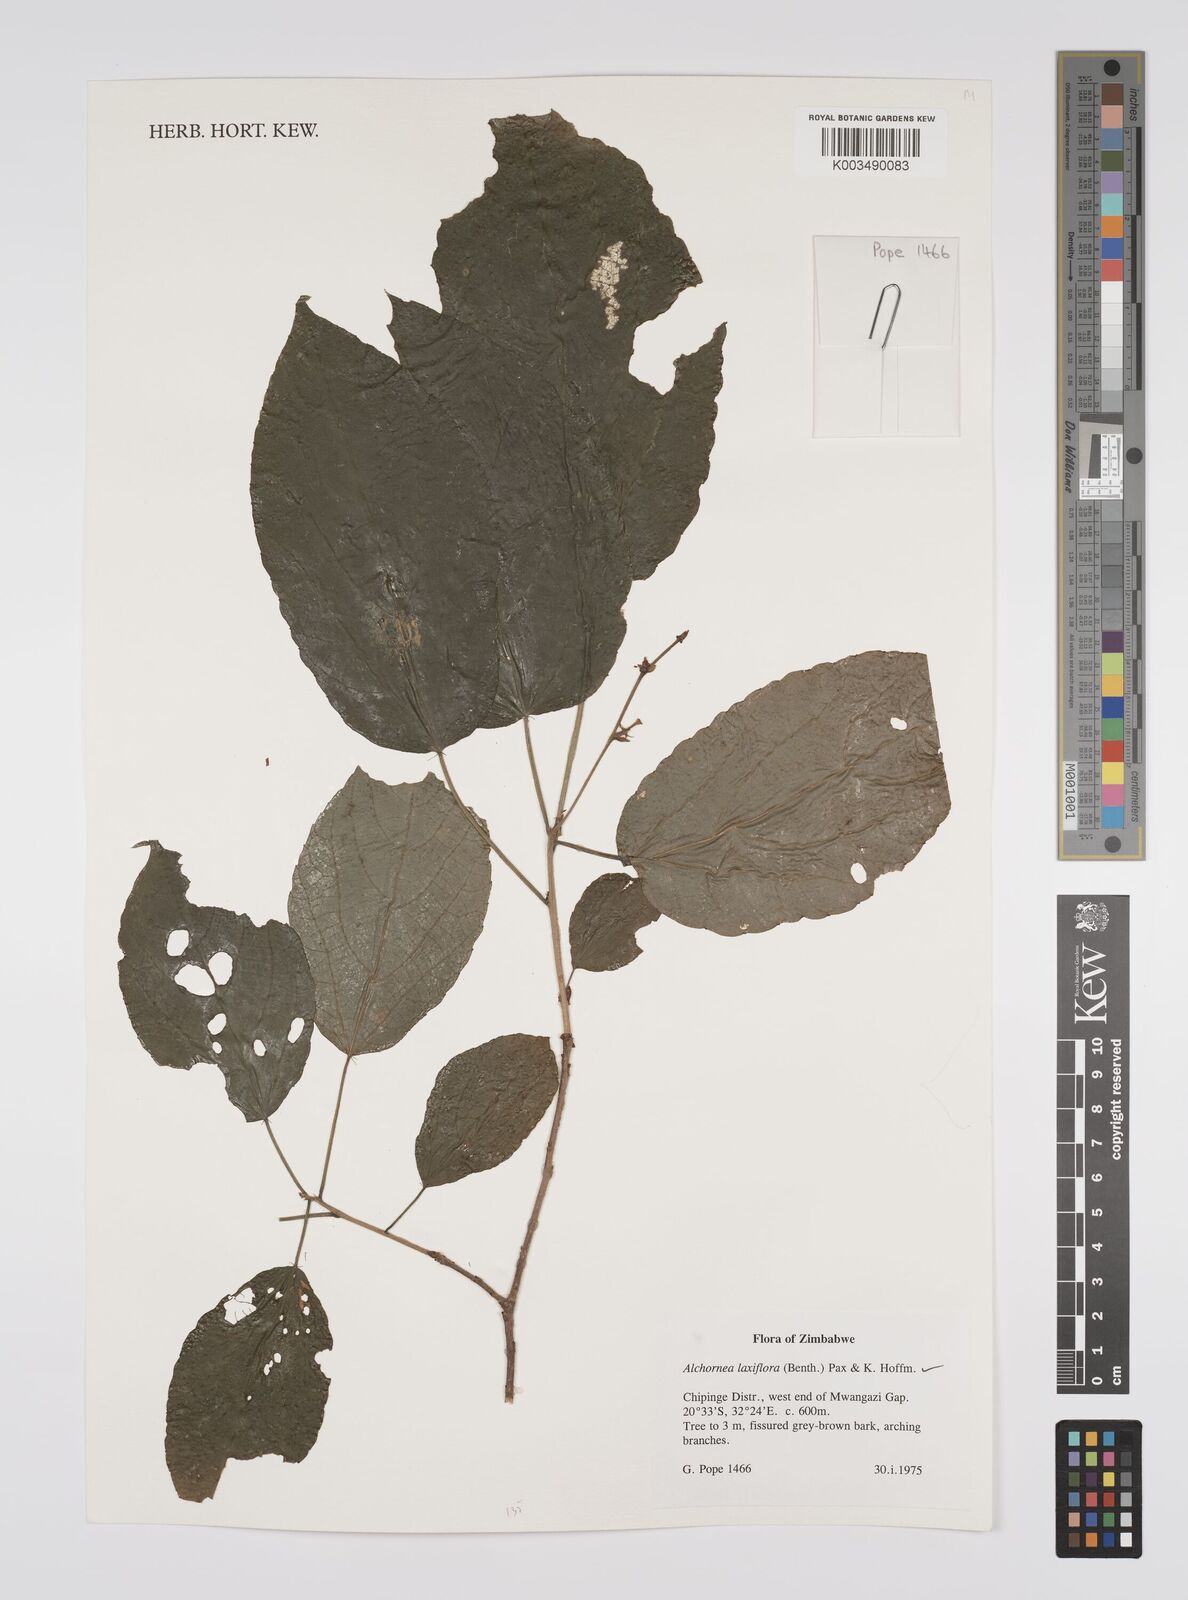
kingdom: Plantae
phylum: Tracheophyta
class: Magnoliopsida
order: Malpighiales
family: Euphorbiaceae
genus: Alchornea
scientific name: Alchornea laxiflora
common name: Lowveld bead-string
